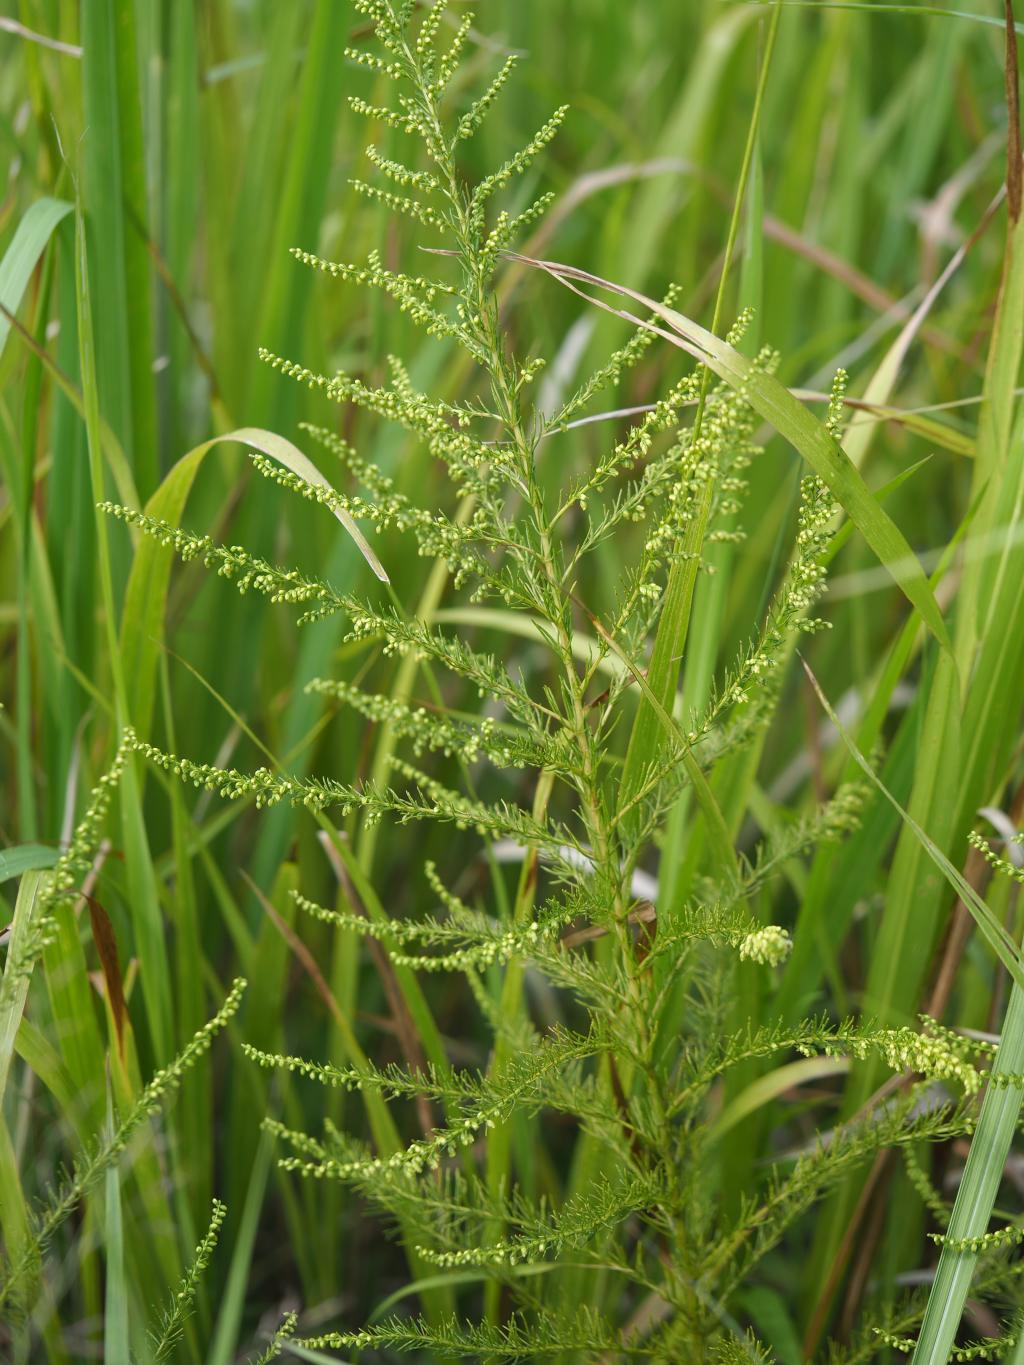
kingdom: Plantae
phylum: Tracheophyta
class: Magnoliopsida
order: Asterales
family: Asteraceae
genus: Artemisia
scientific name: Artemisia capillaris
